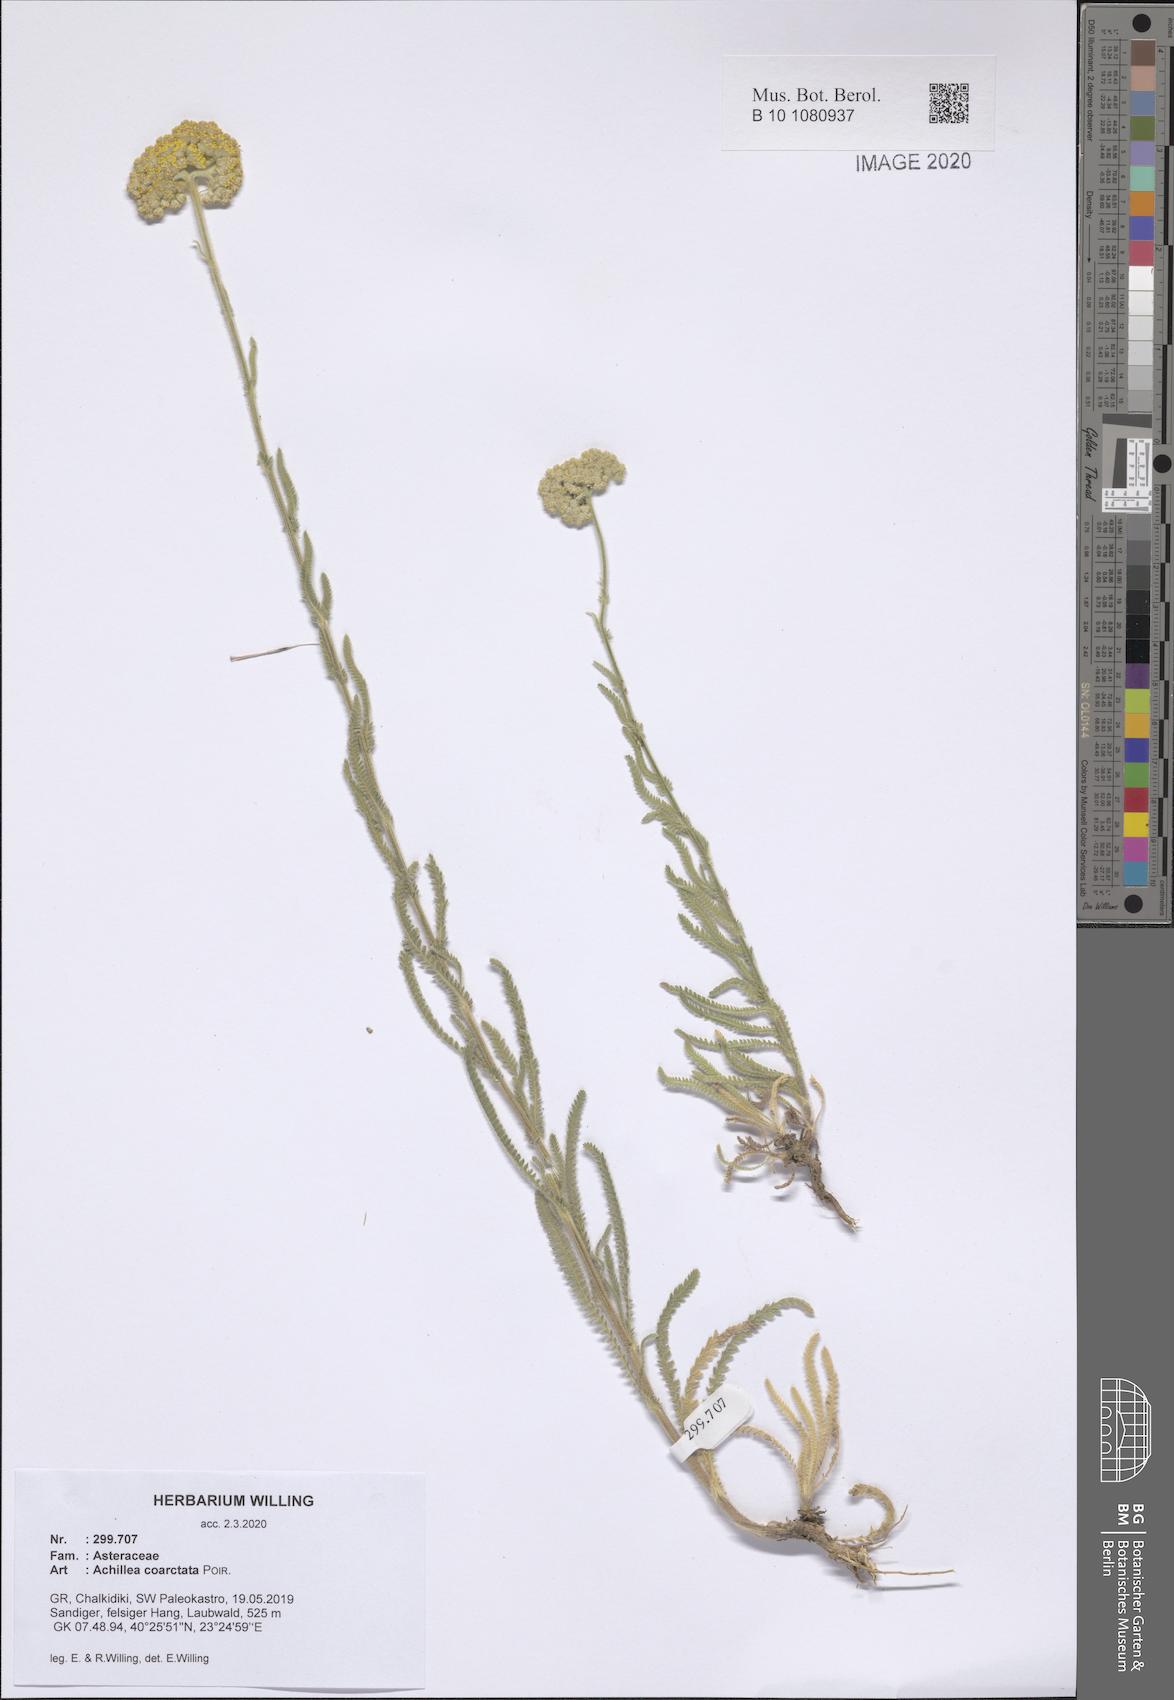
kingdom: Plantae
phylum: Tracheophyta
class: Magnoliopsida
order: Asterales
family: Asteraceae
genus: Achillea
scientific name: Achillea coarctata
